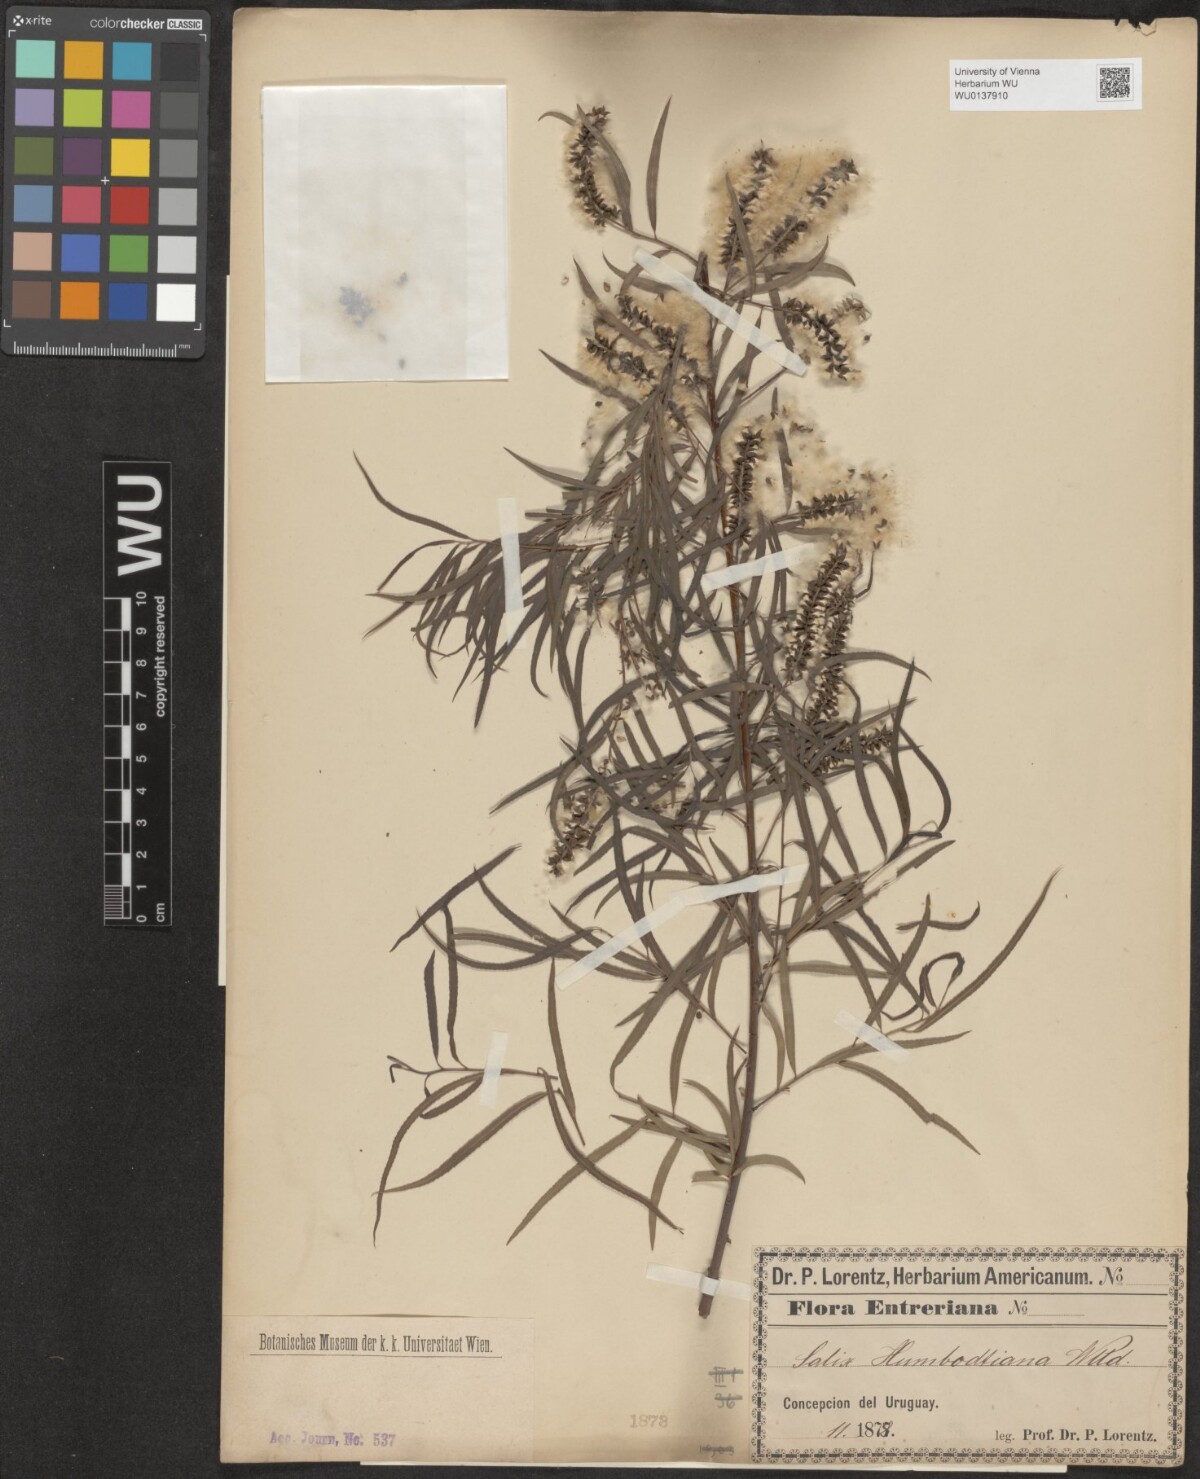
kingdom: Plantae
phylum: Tracheophyta
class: Magnoliopsida
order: Malpighiales
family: Salicaceae
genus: Salix
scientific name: Salix humboldtiana
